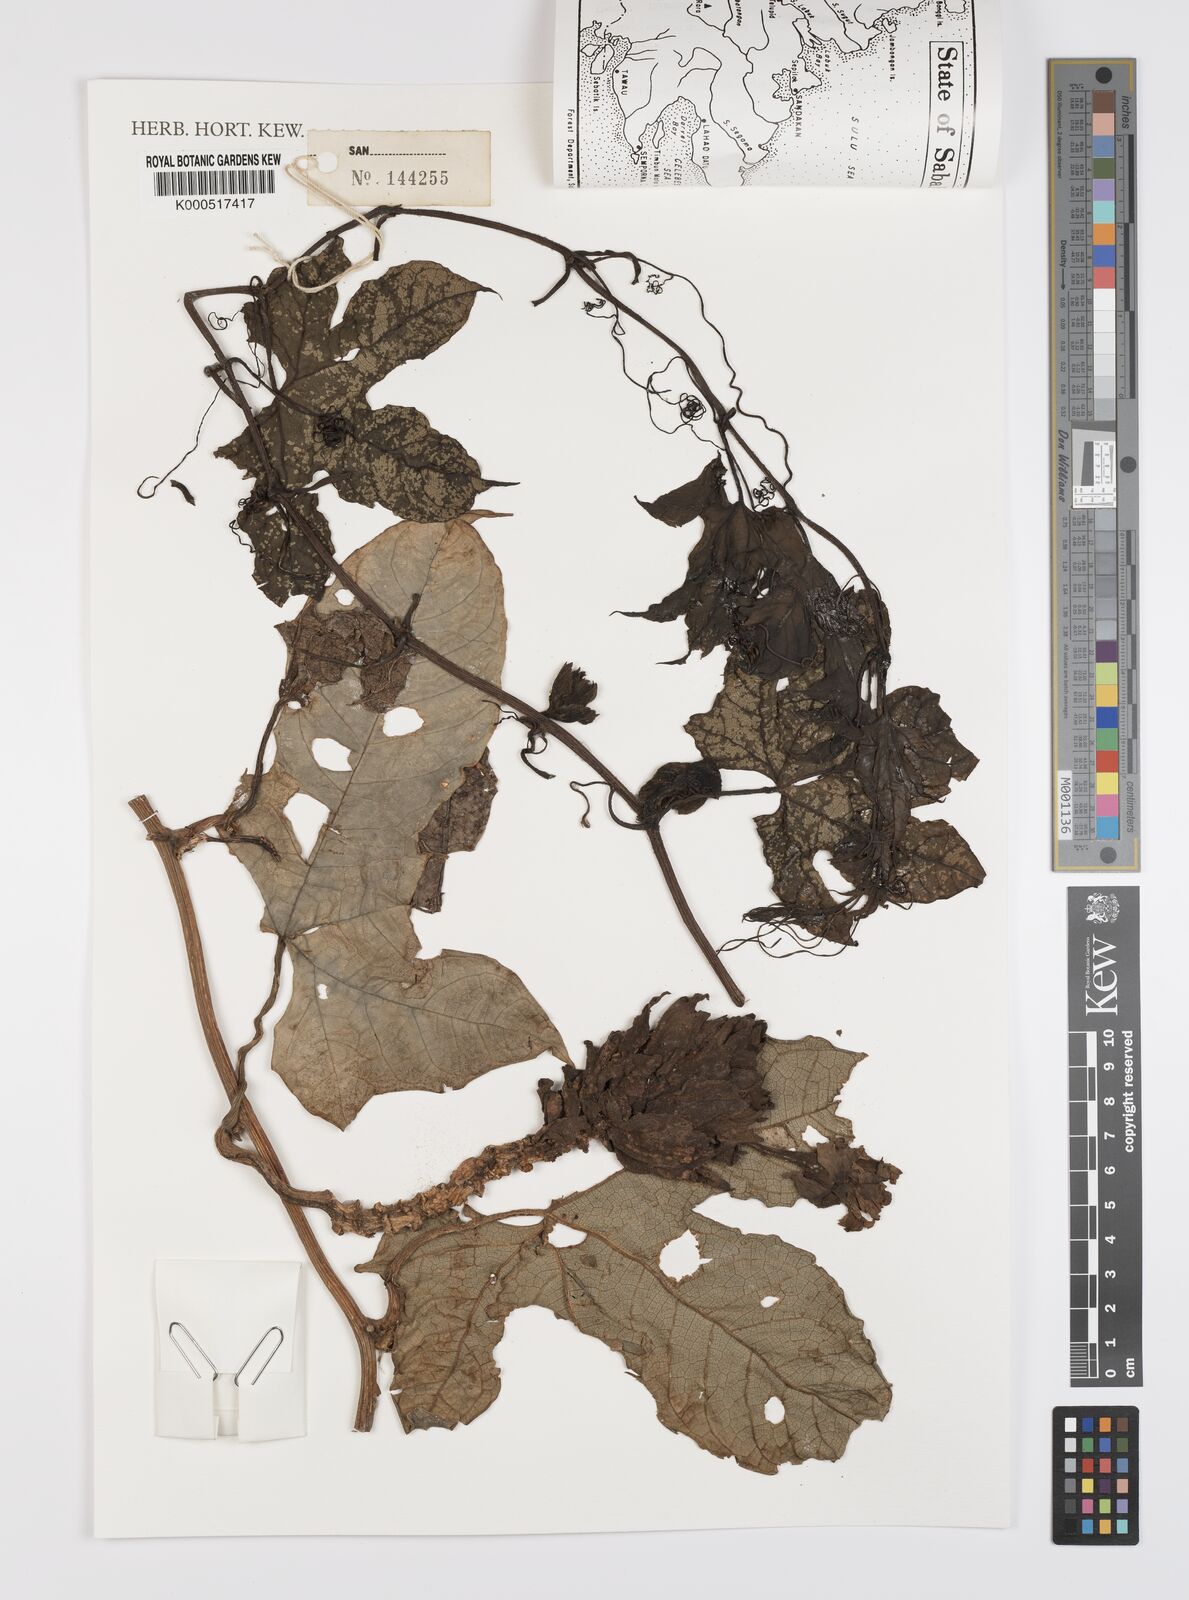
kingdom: Plantae
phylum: Tracheophyta
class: Magnoliopsida
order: Cucurbitales
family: Cucurbitaceae
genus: Trichosanthes
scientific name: Trichosanthes montana
